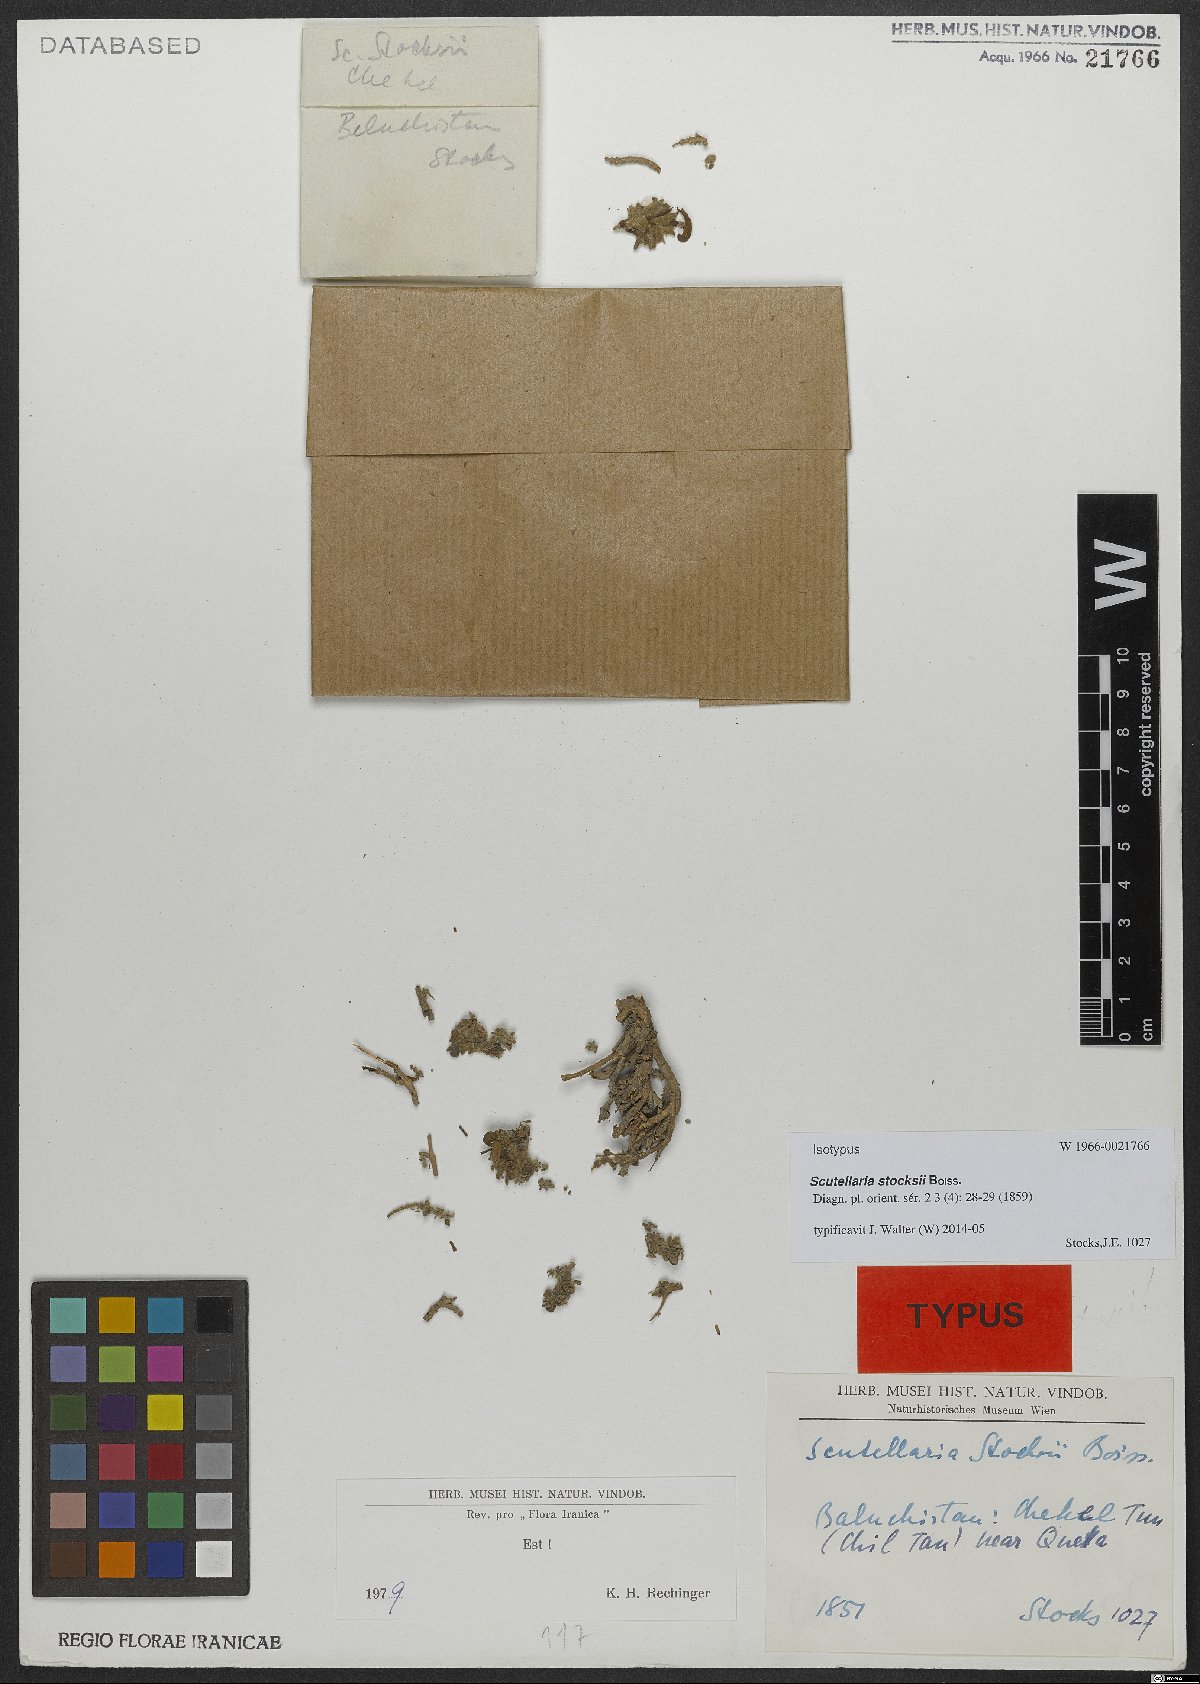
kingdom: Plantae
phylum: Tracheophyta
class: Magnoliopsida
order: Lamiales
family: Lamiaceae
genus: Scutellaria
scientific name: Scutellaria stocksii
